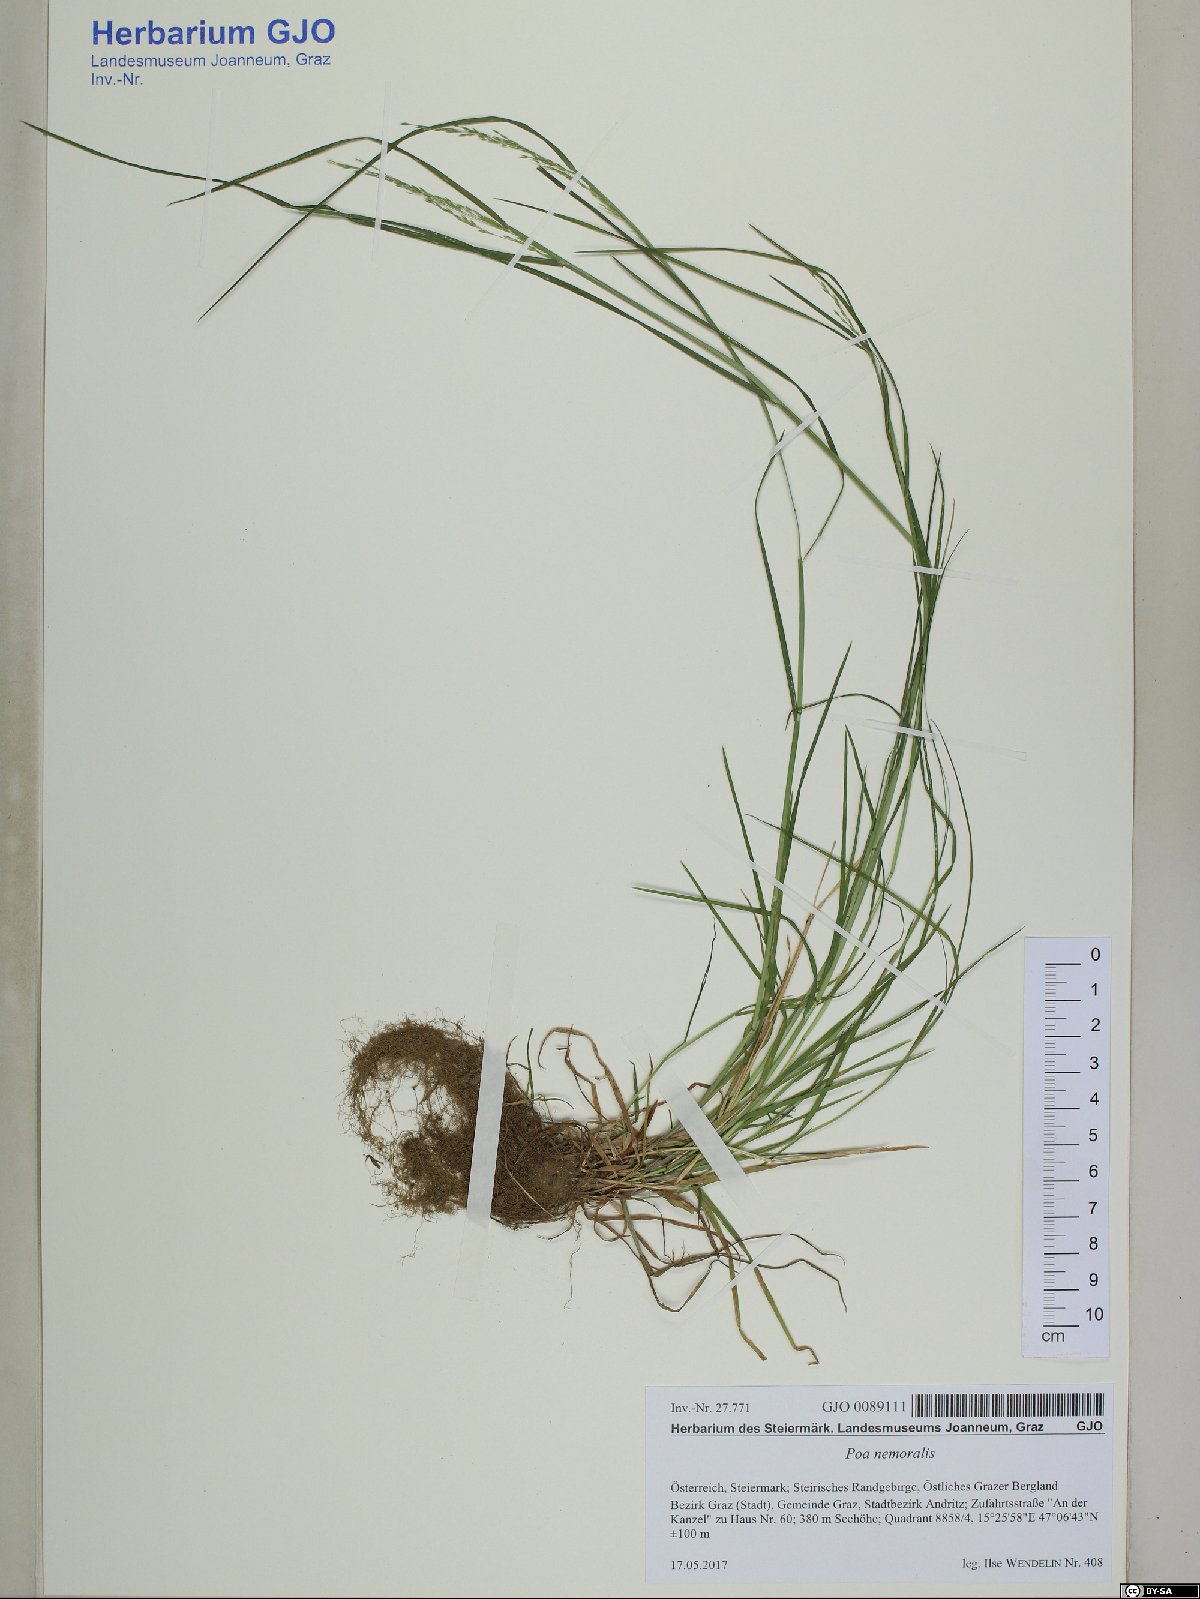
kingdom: Plantae
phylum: Tracheophyta
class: Liliopsida
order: Poales
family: Poaceae
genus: Poa
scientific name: Poa nemoralis
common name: Wood bluegrass
